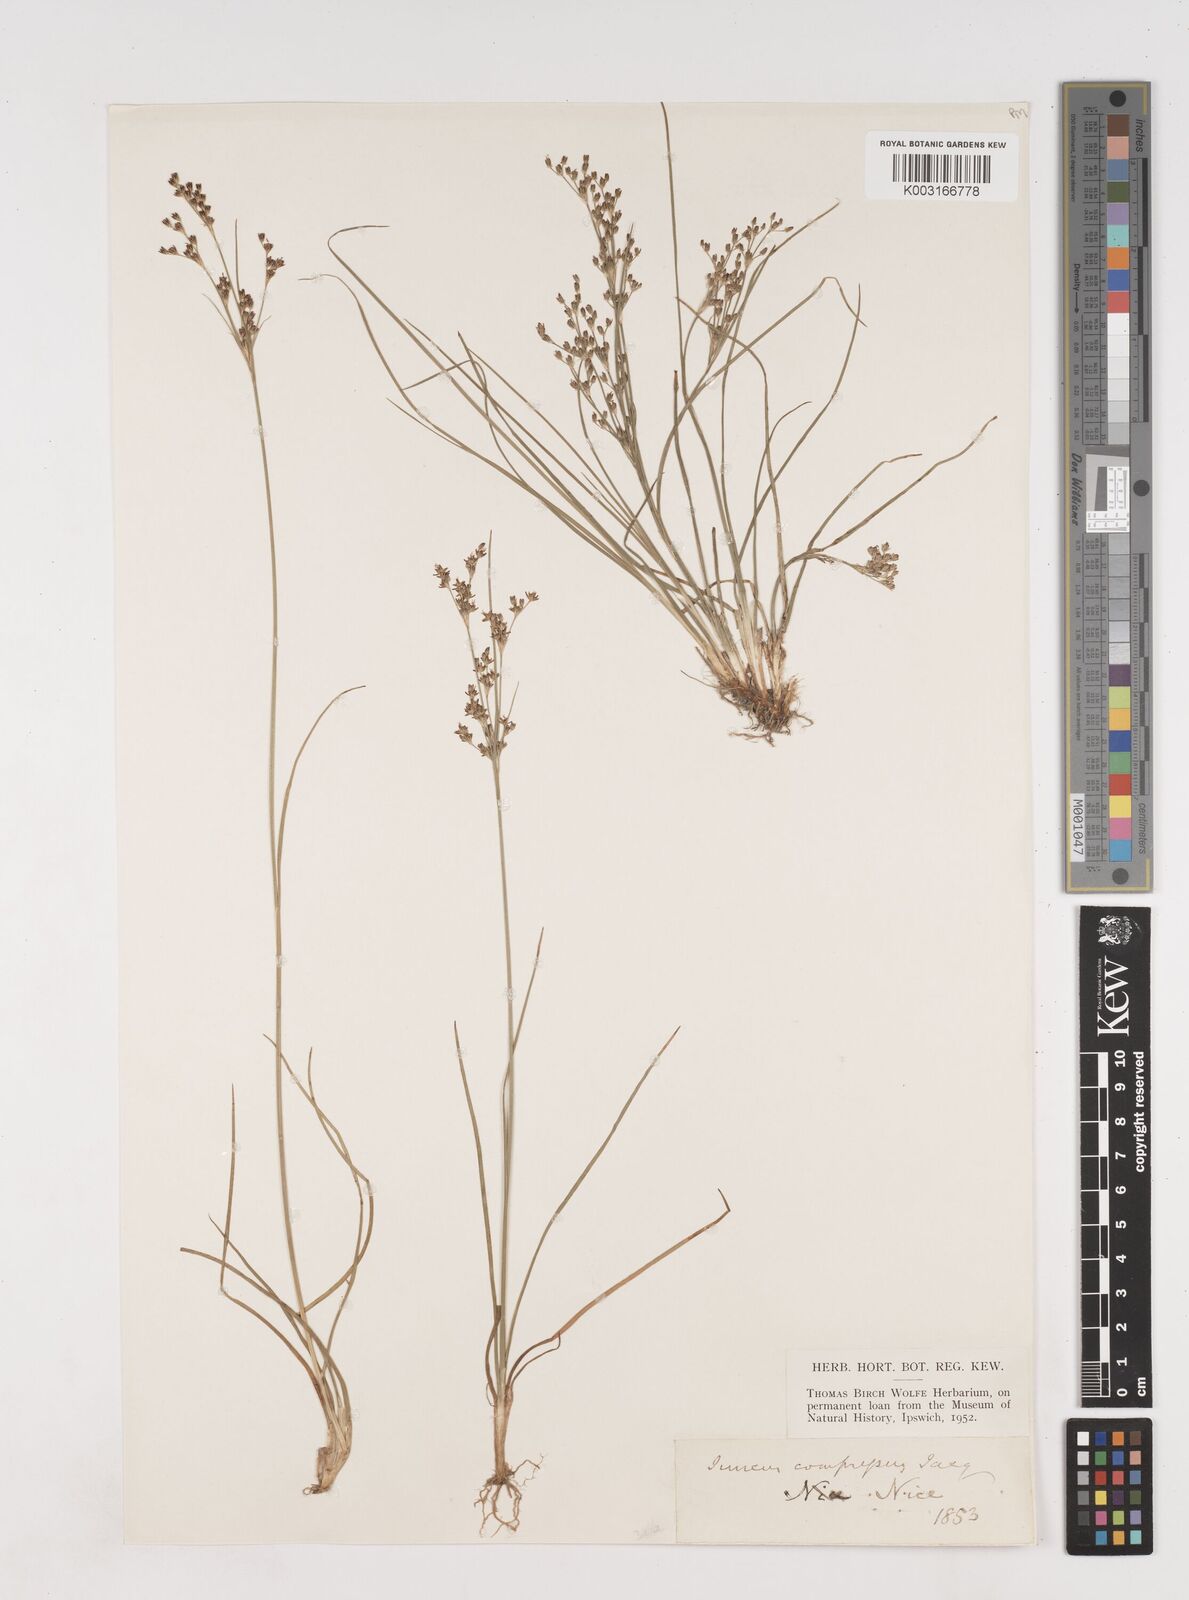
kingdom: Plantae
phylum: Tracheophyta
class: Liliopsida
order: Poales
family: Juncaceae
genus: Juncus
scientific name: Juncus compressus
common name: Round-fruited rush
